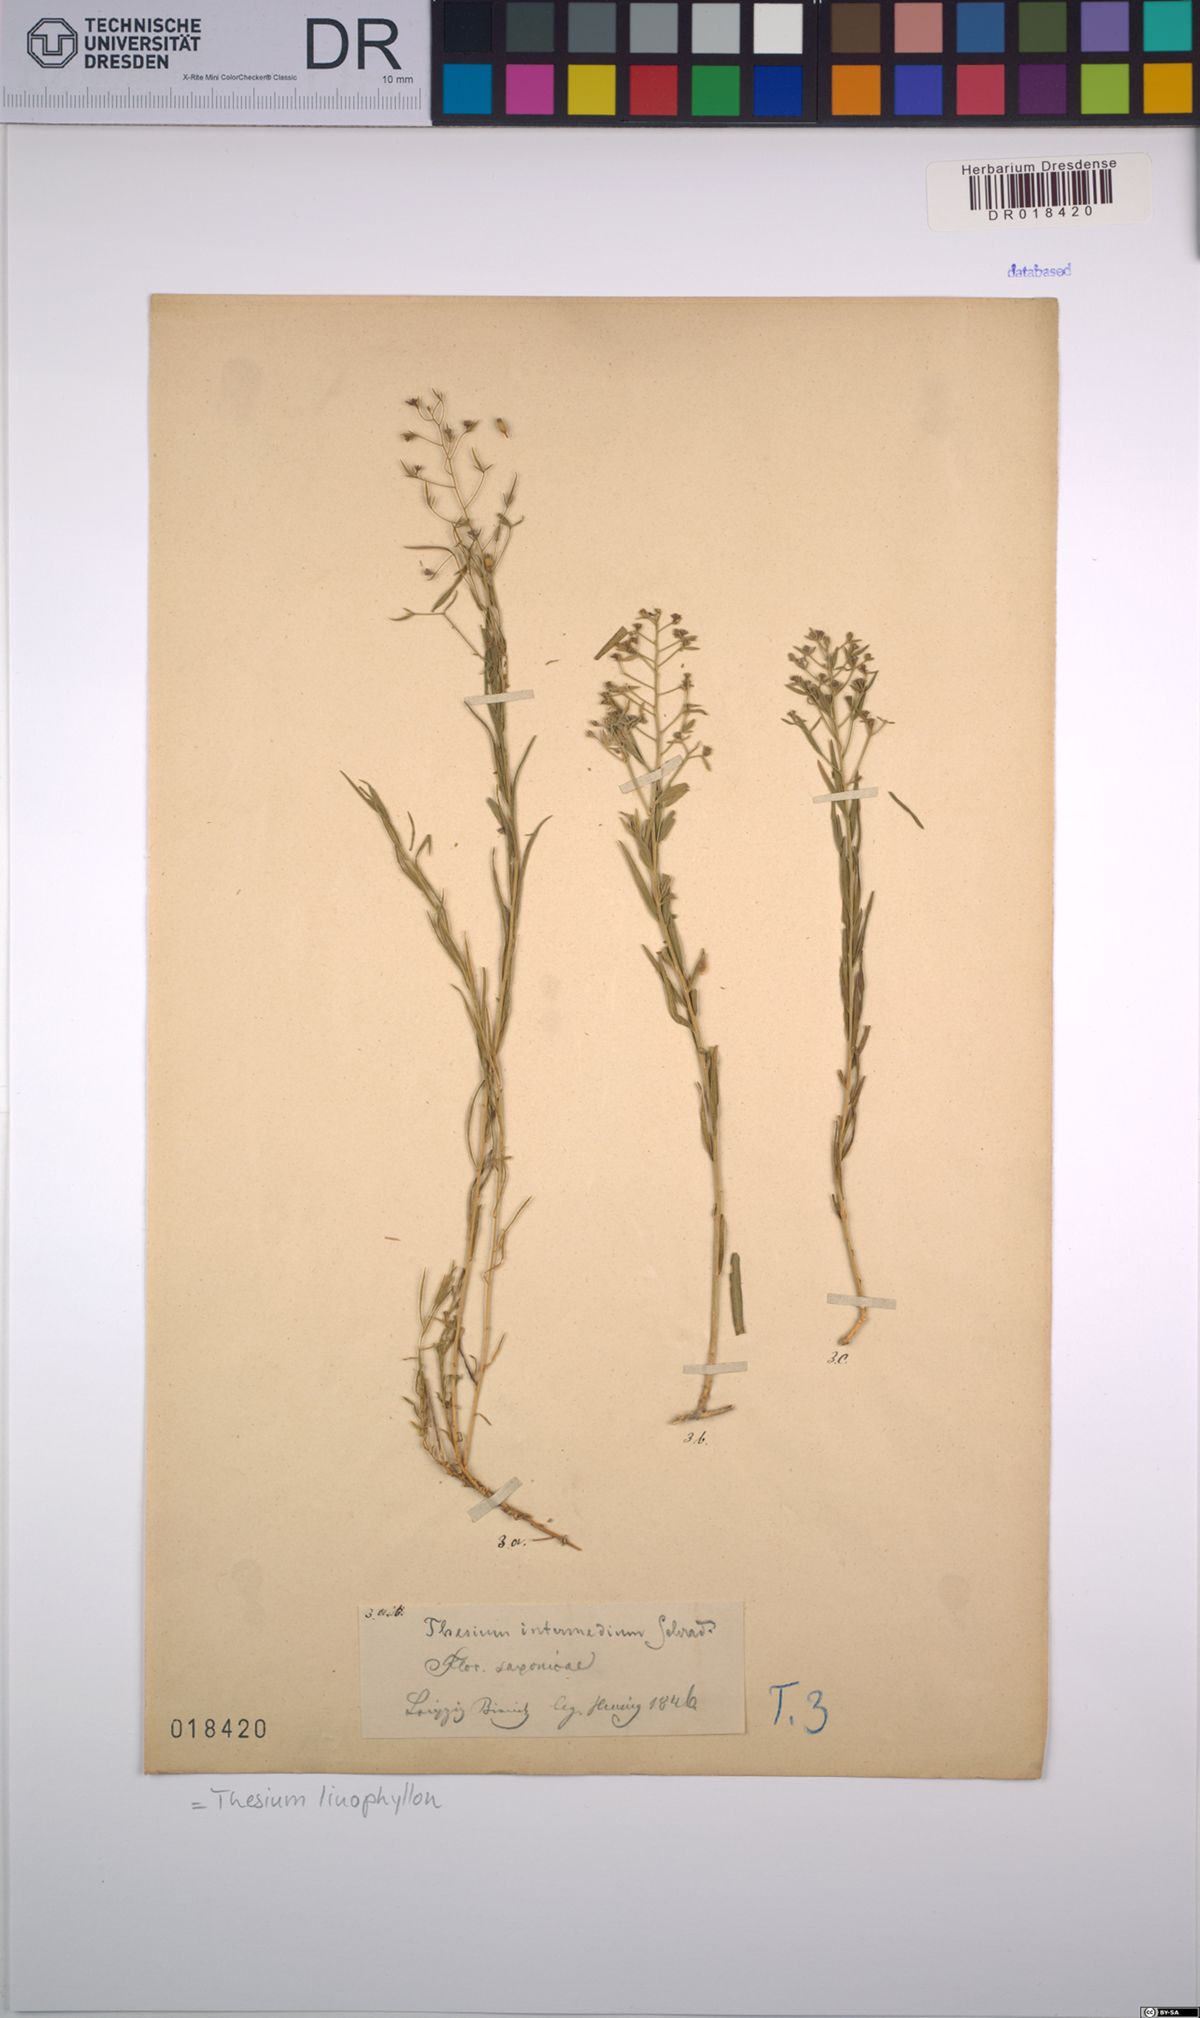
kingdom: Plantae
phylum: Tracheophyta
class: Magnoliopsida
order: Santalales
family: Thesiaceae
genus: Thesium
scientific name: Thesium linophyllon
